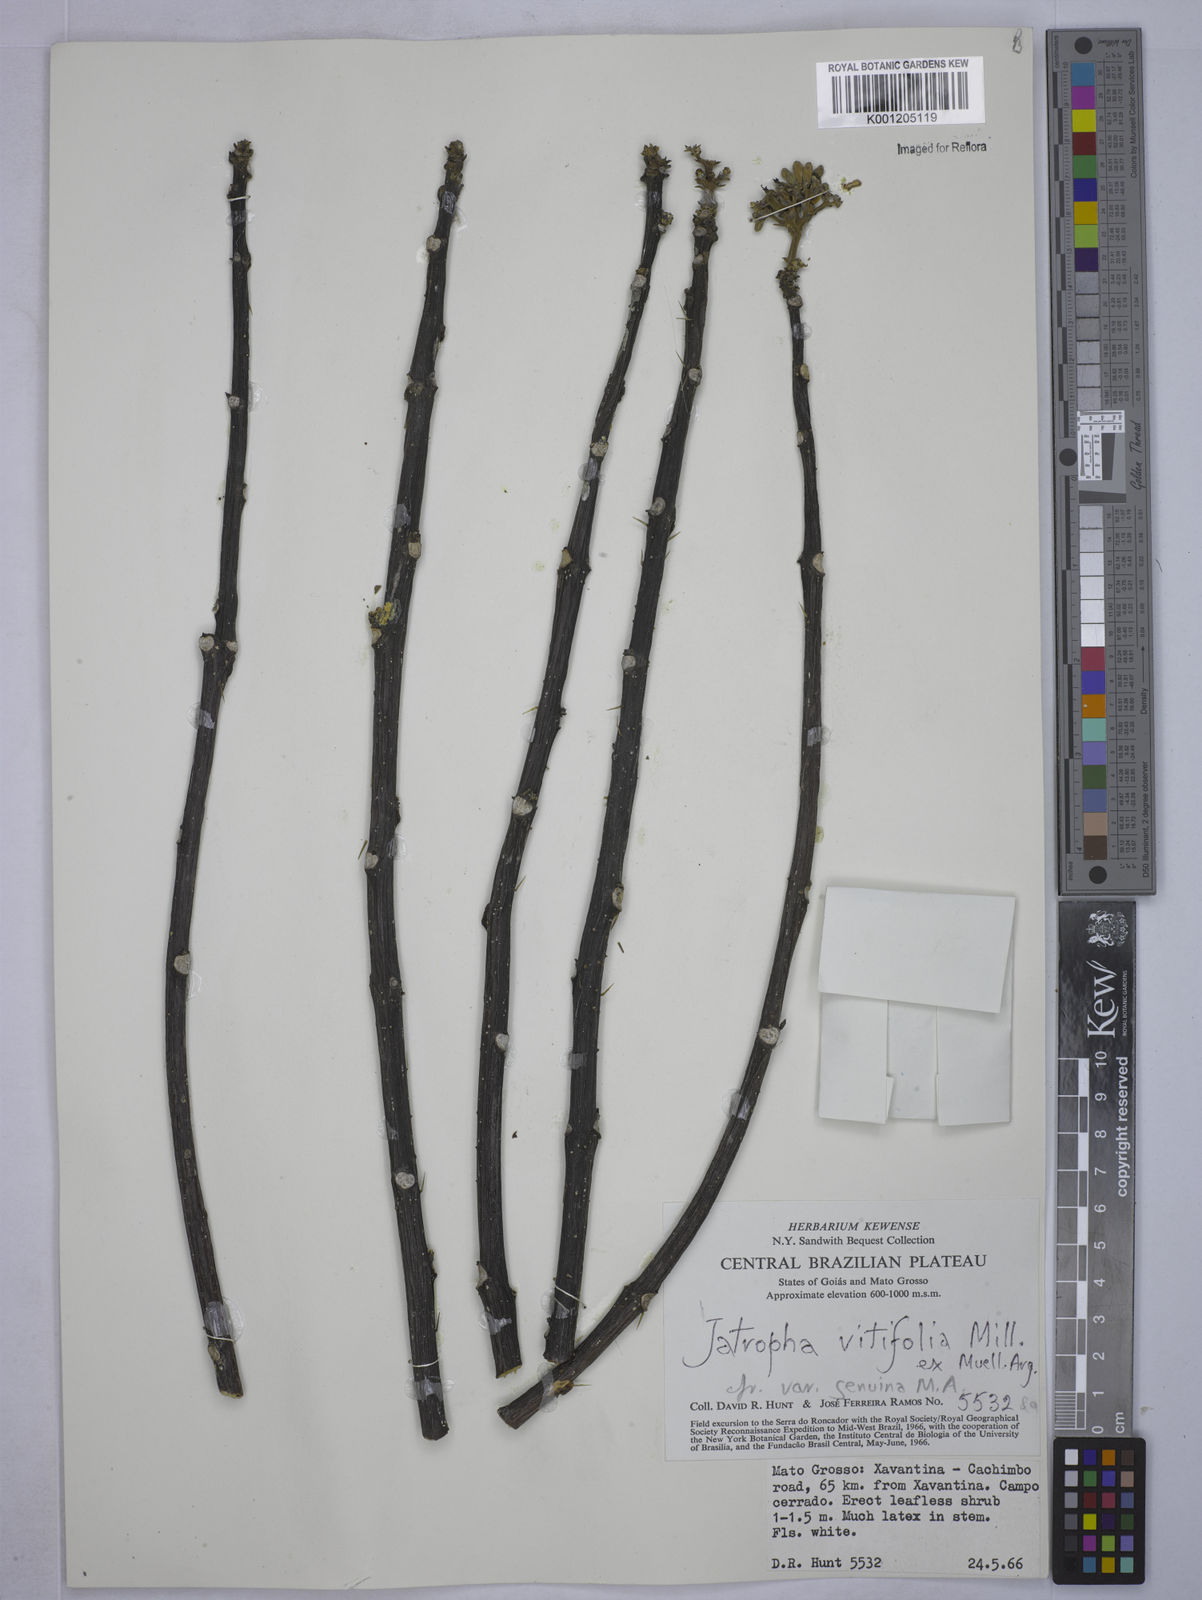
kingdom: Plantae
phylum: Tracheophyta
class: Magnoliopsida
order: Malpighiales
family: Euphorbiaceae
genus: Cnidoscolus
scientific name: Cnidoscolus vitifolius
